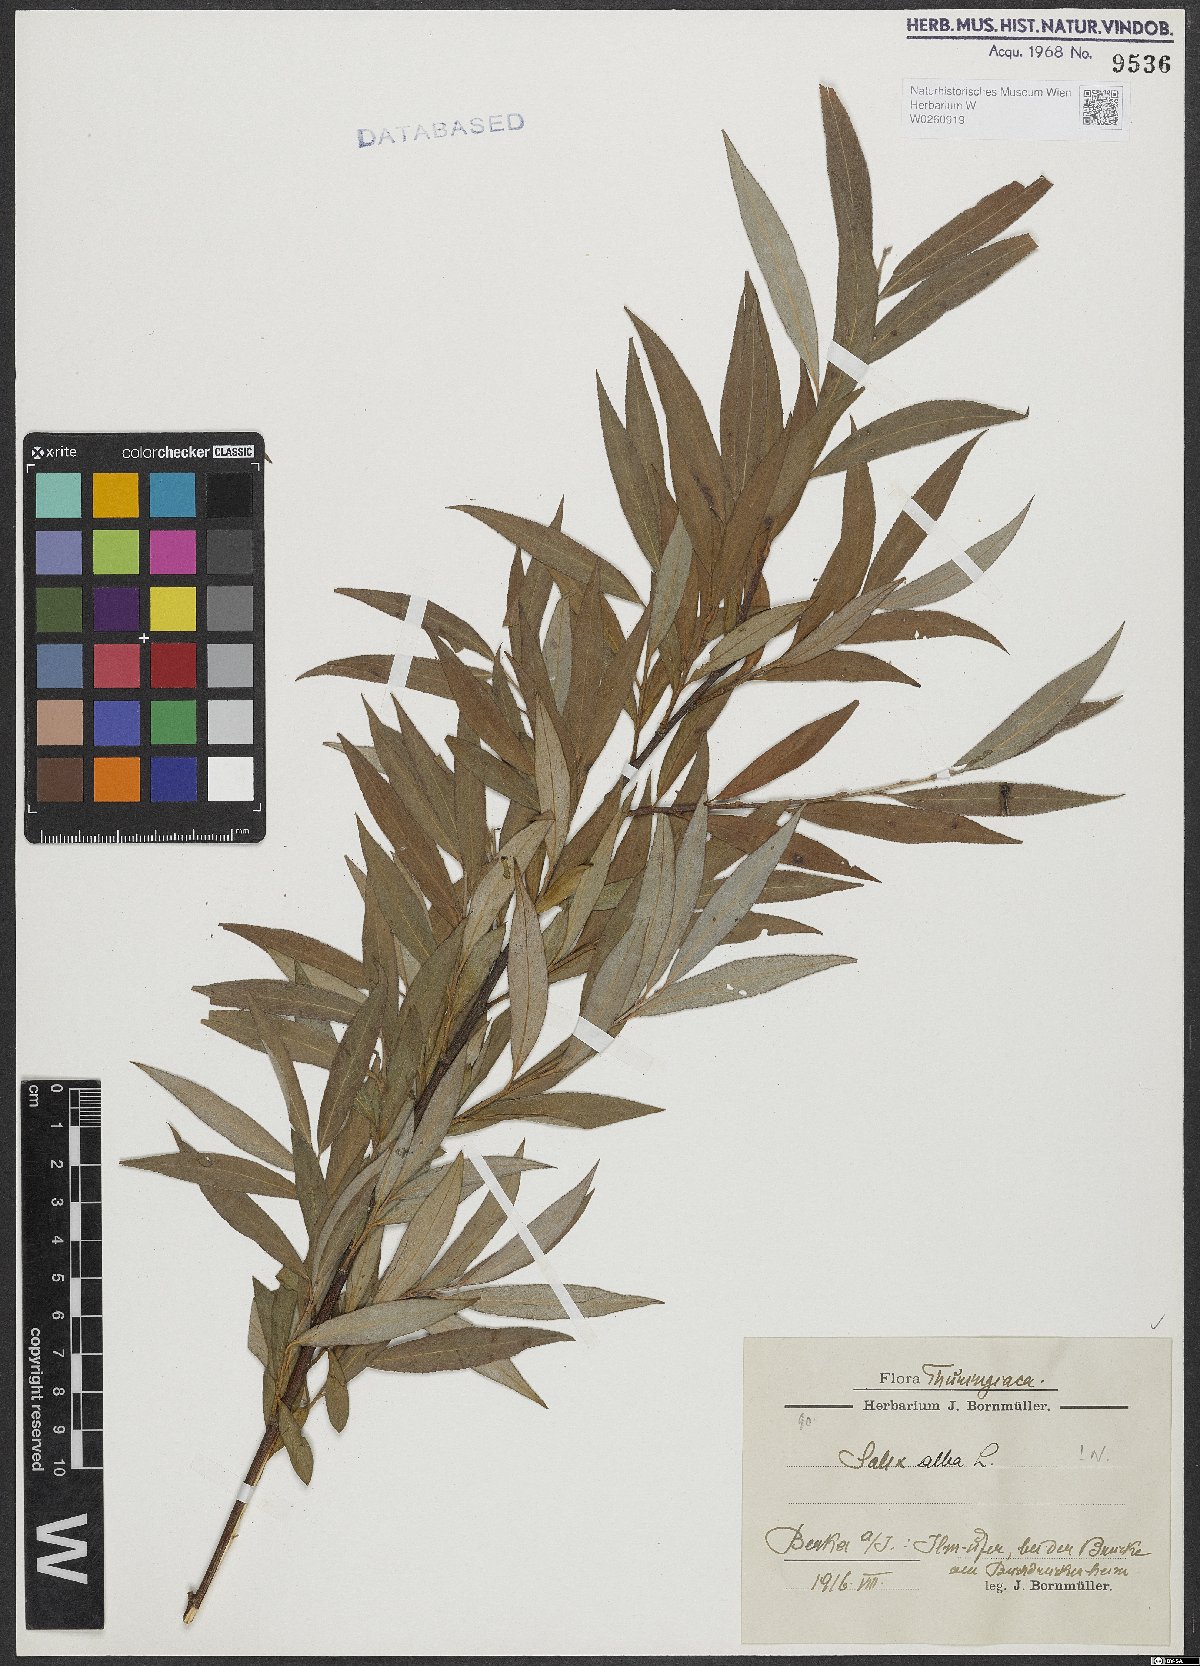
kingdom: Plantae
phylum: Tracheophyta
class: Magnoliopsida
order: Malpighiales
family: Salicaceae
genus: Salix
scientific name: Salix alba
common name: White willow
